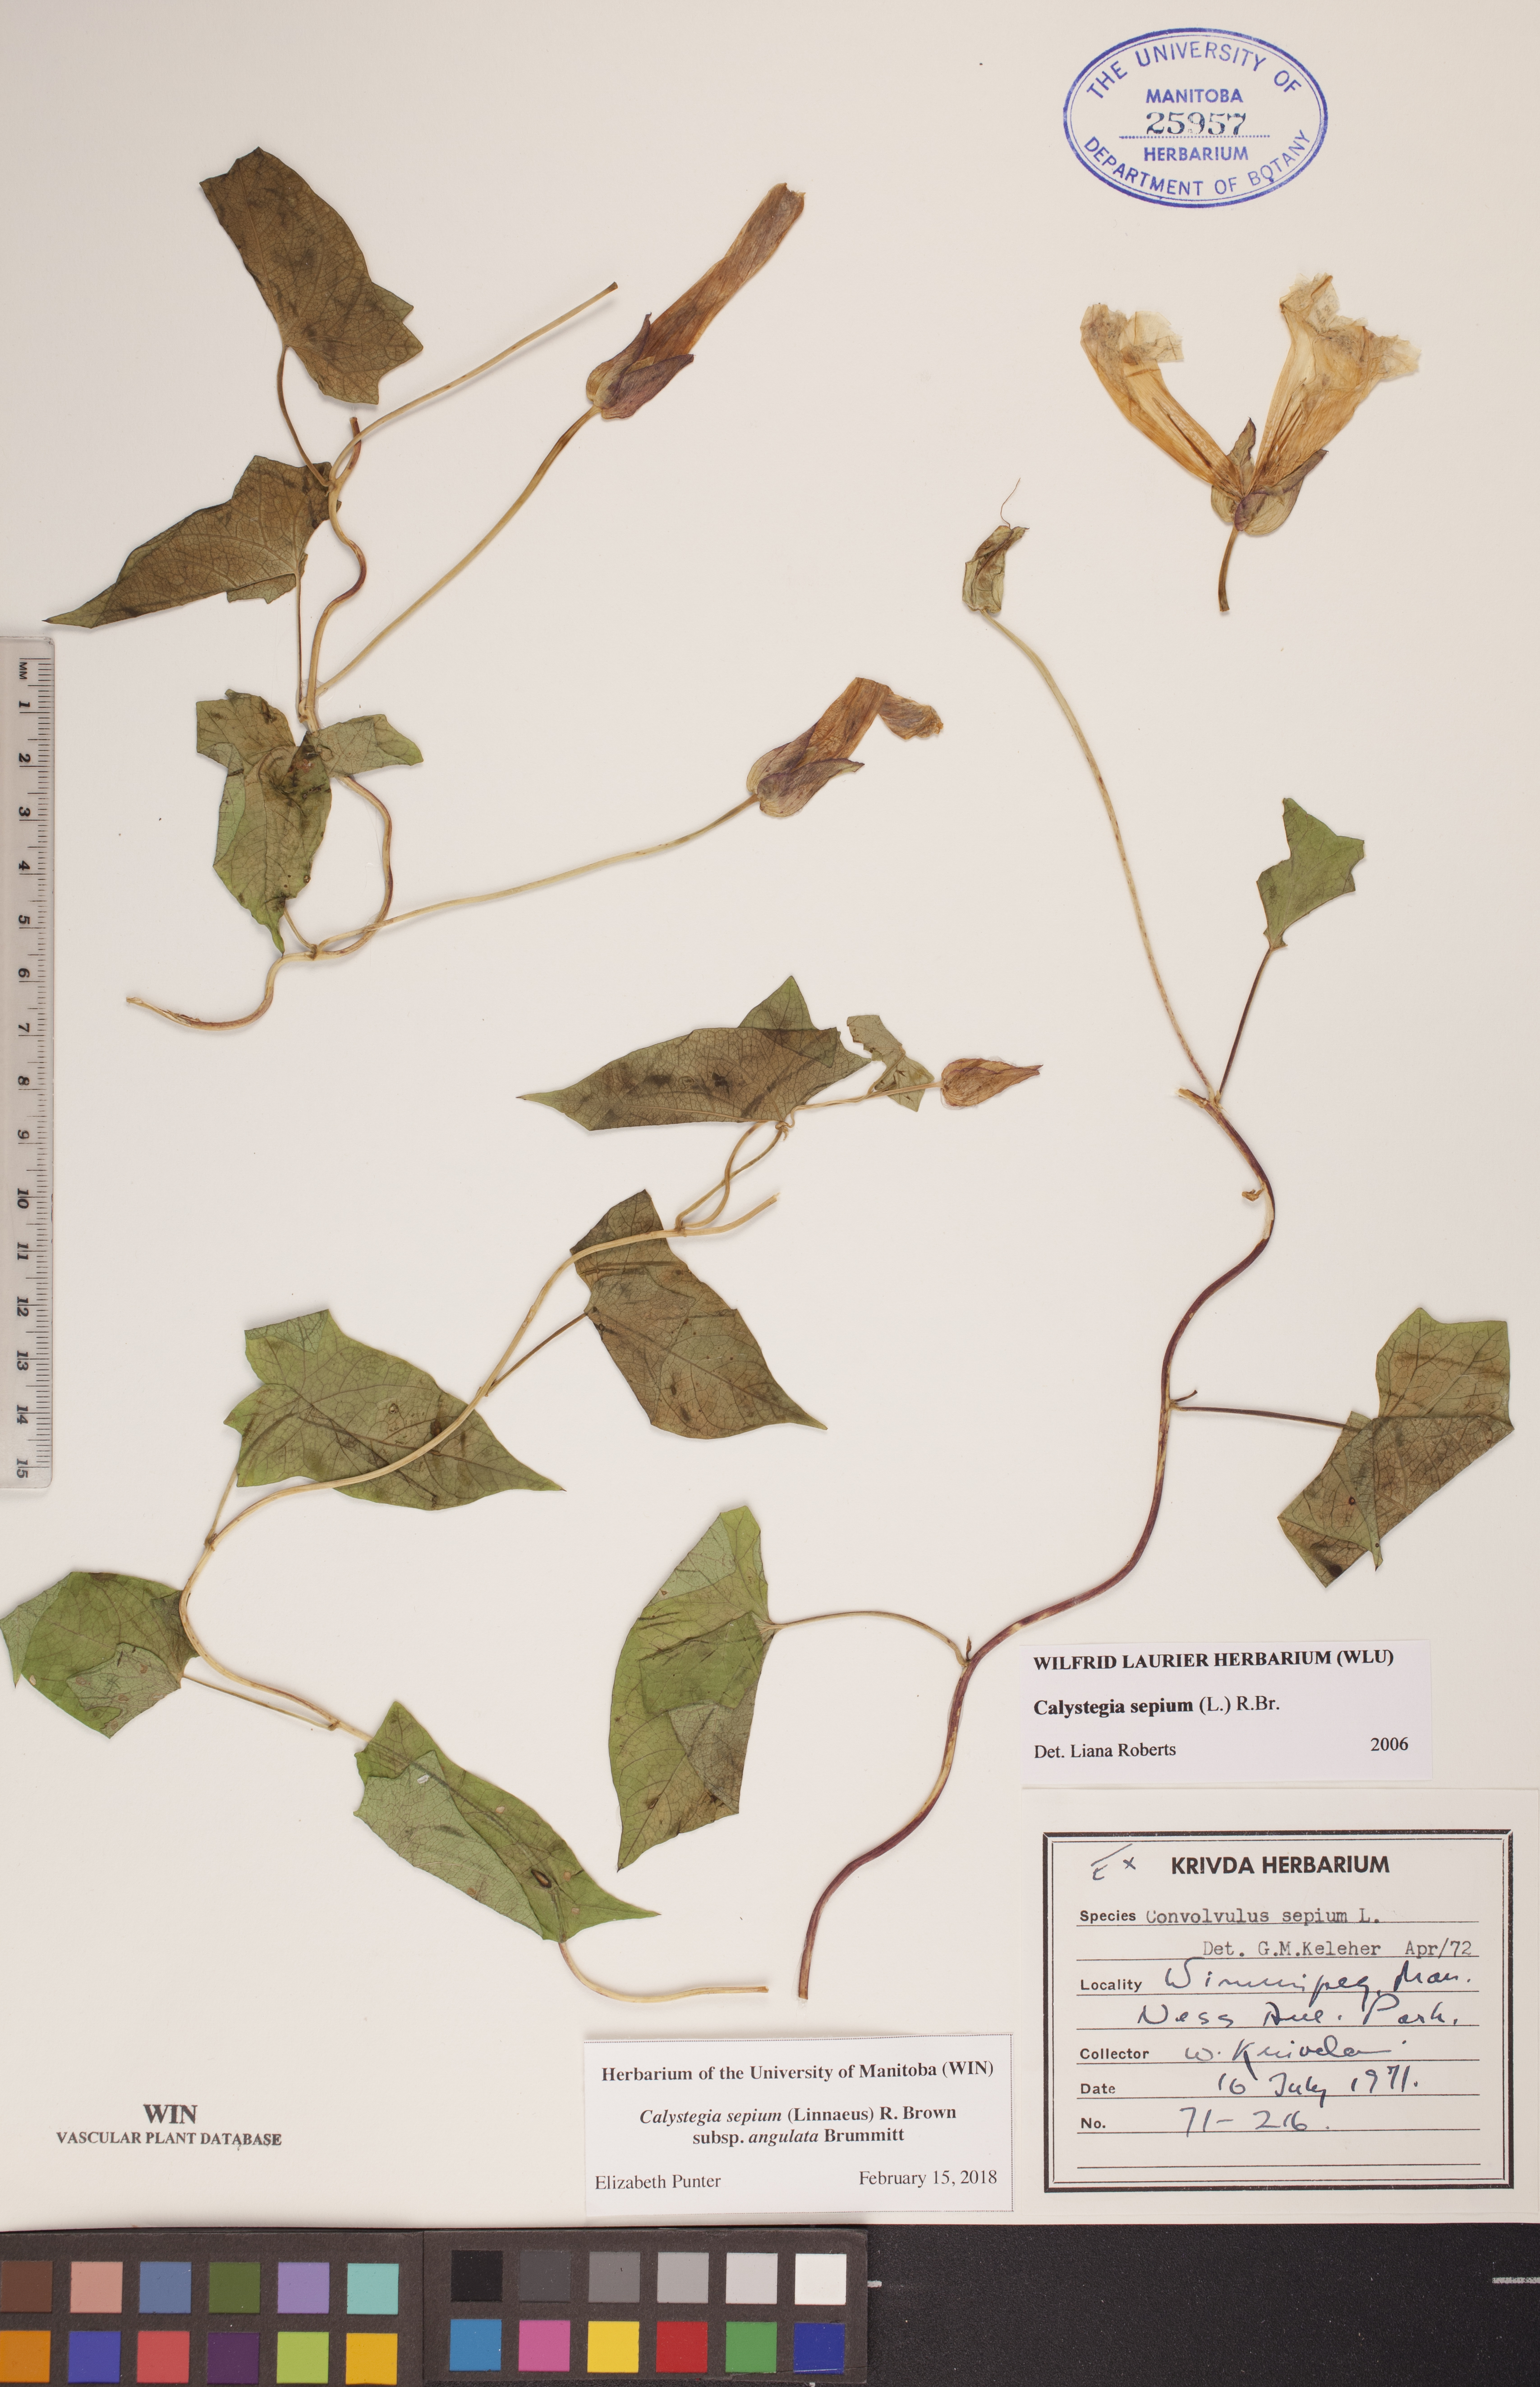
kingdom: Plantae
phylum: Tracheophyta
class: Magnoliopsida
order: Solanales
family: Convolvulaceae
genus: Calystegia
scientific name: Calystegia sepium
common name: Hedge bindweed
